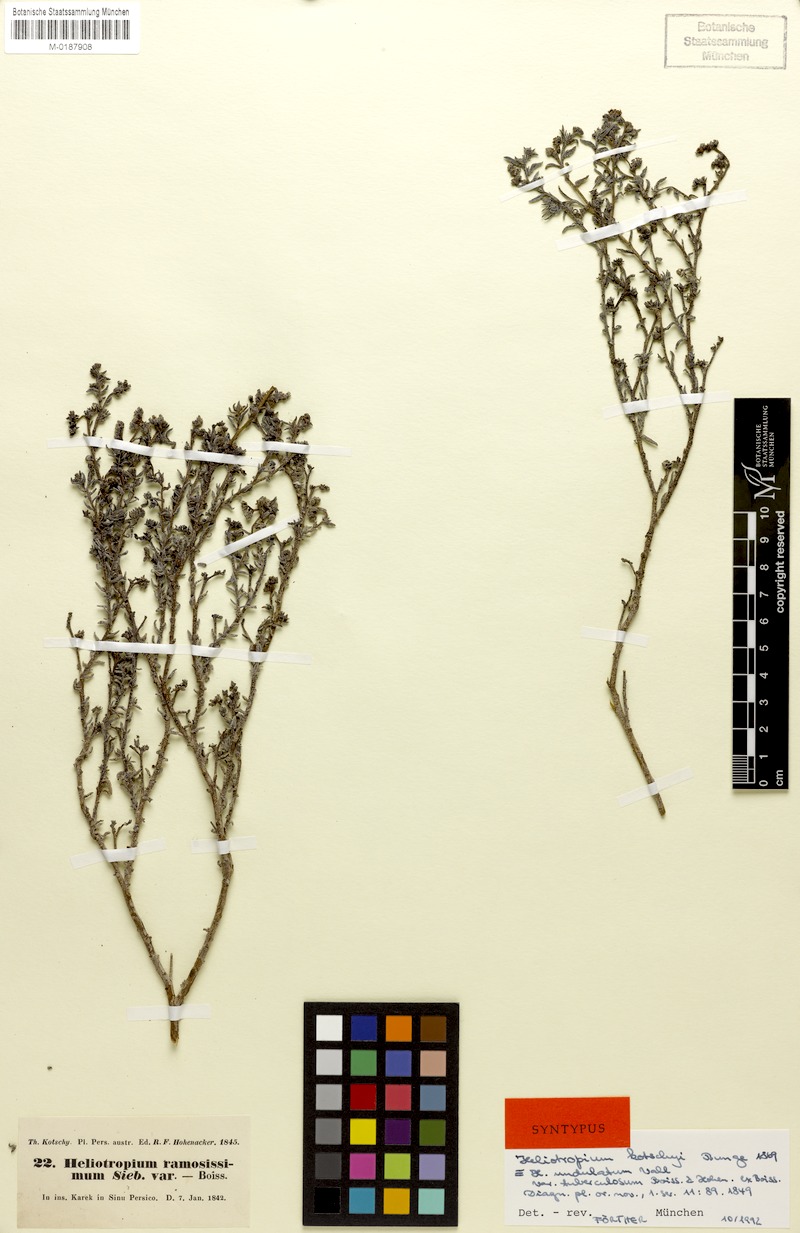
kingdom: Plantae
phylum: Tracheophyta
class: Magnoliopsida
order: Boraginales
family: Heliotropiaceae
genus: Heliotropium
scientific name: Heliotropium bacciferum
